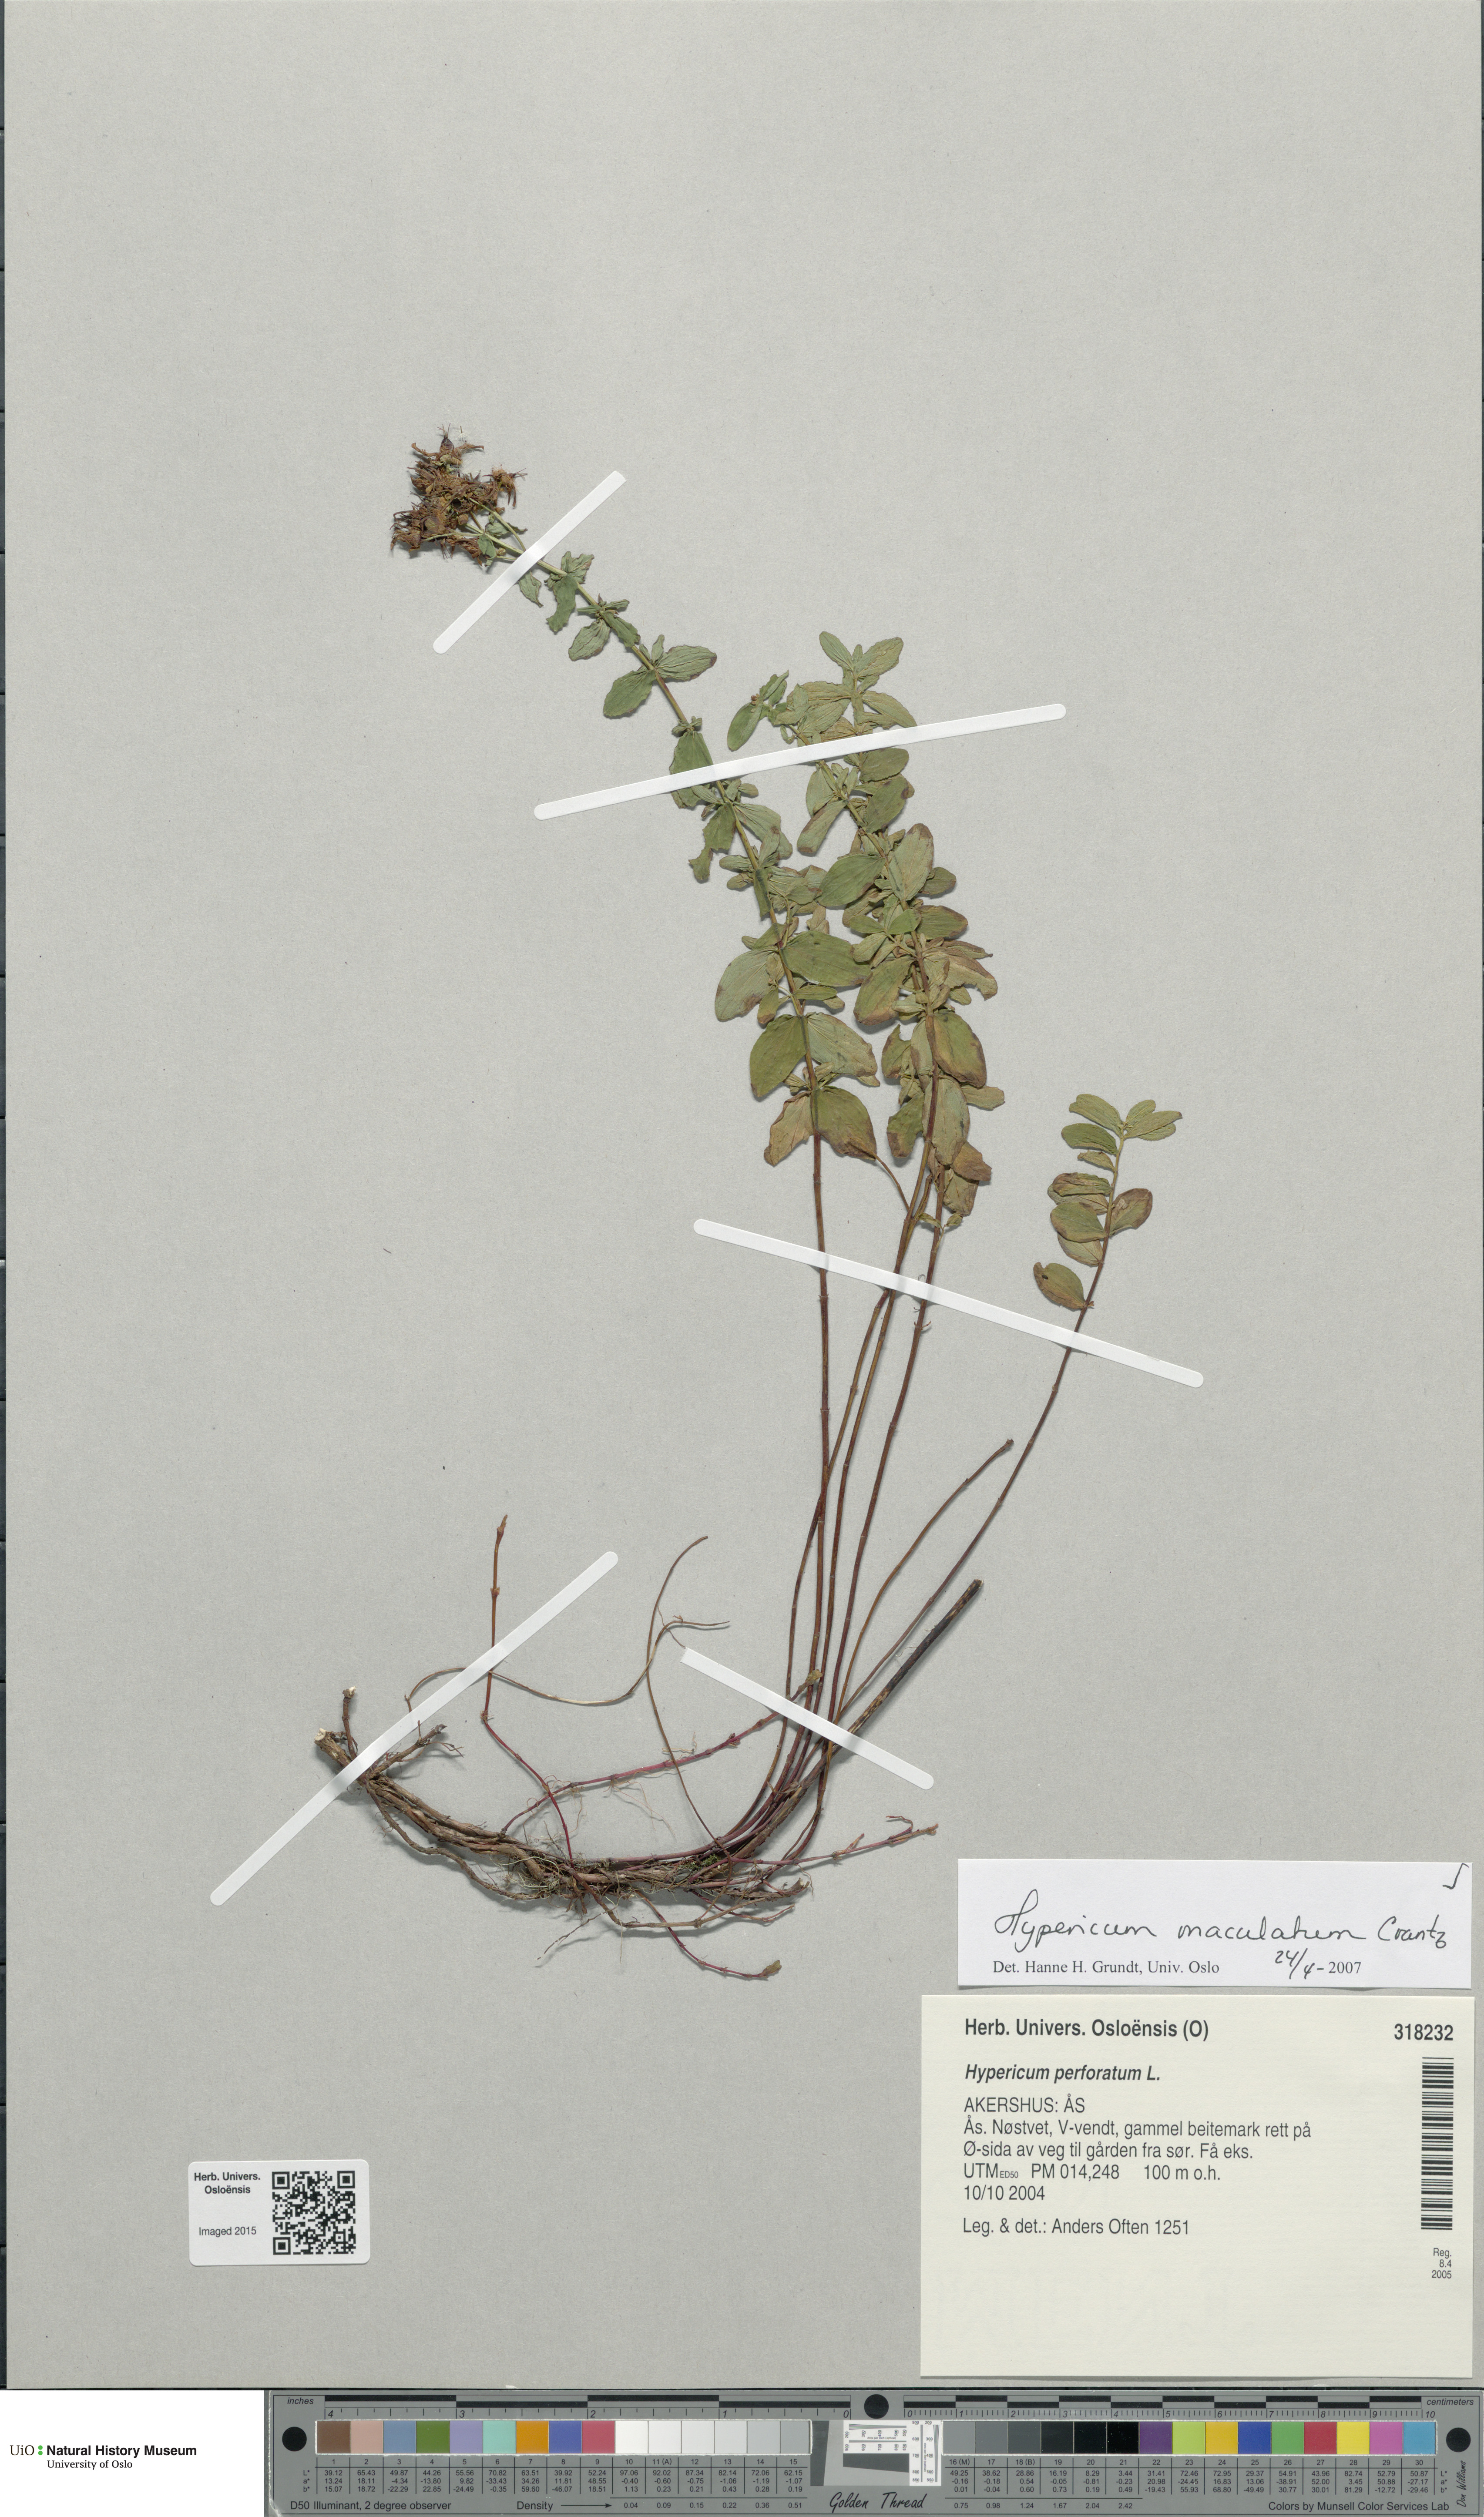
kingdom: Plantae
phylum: Tracheophyta
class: Magnoliopsida
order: Malpighiales
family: Hypericaceae
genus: Hypericum
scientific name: Hypericum maculatum
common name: Imperforate st. john's-wort
